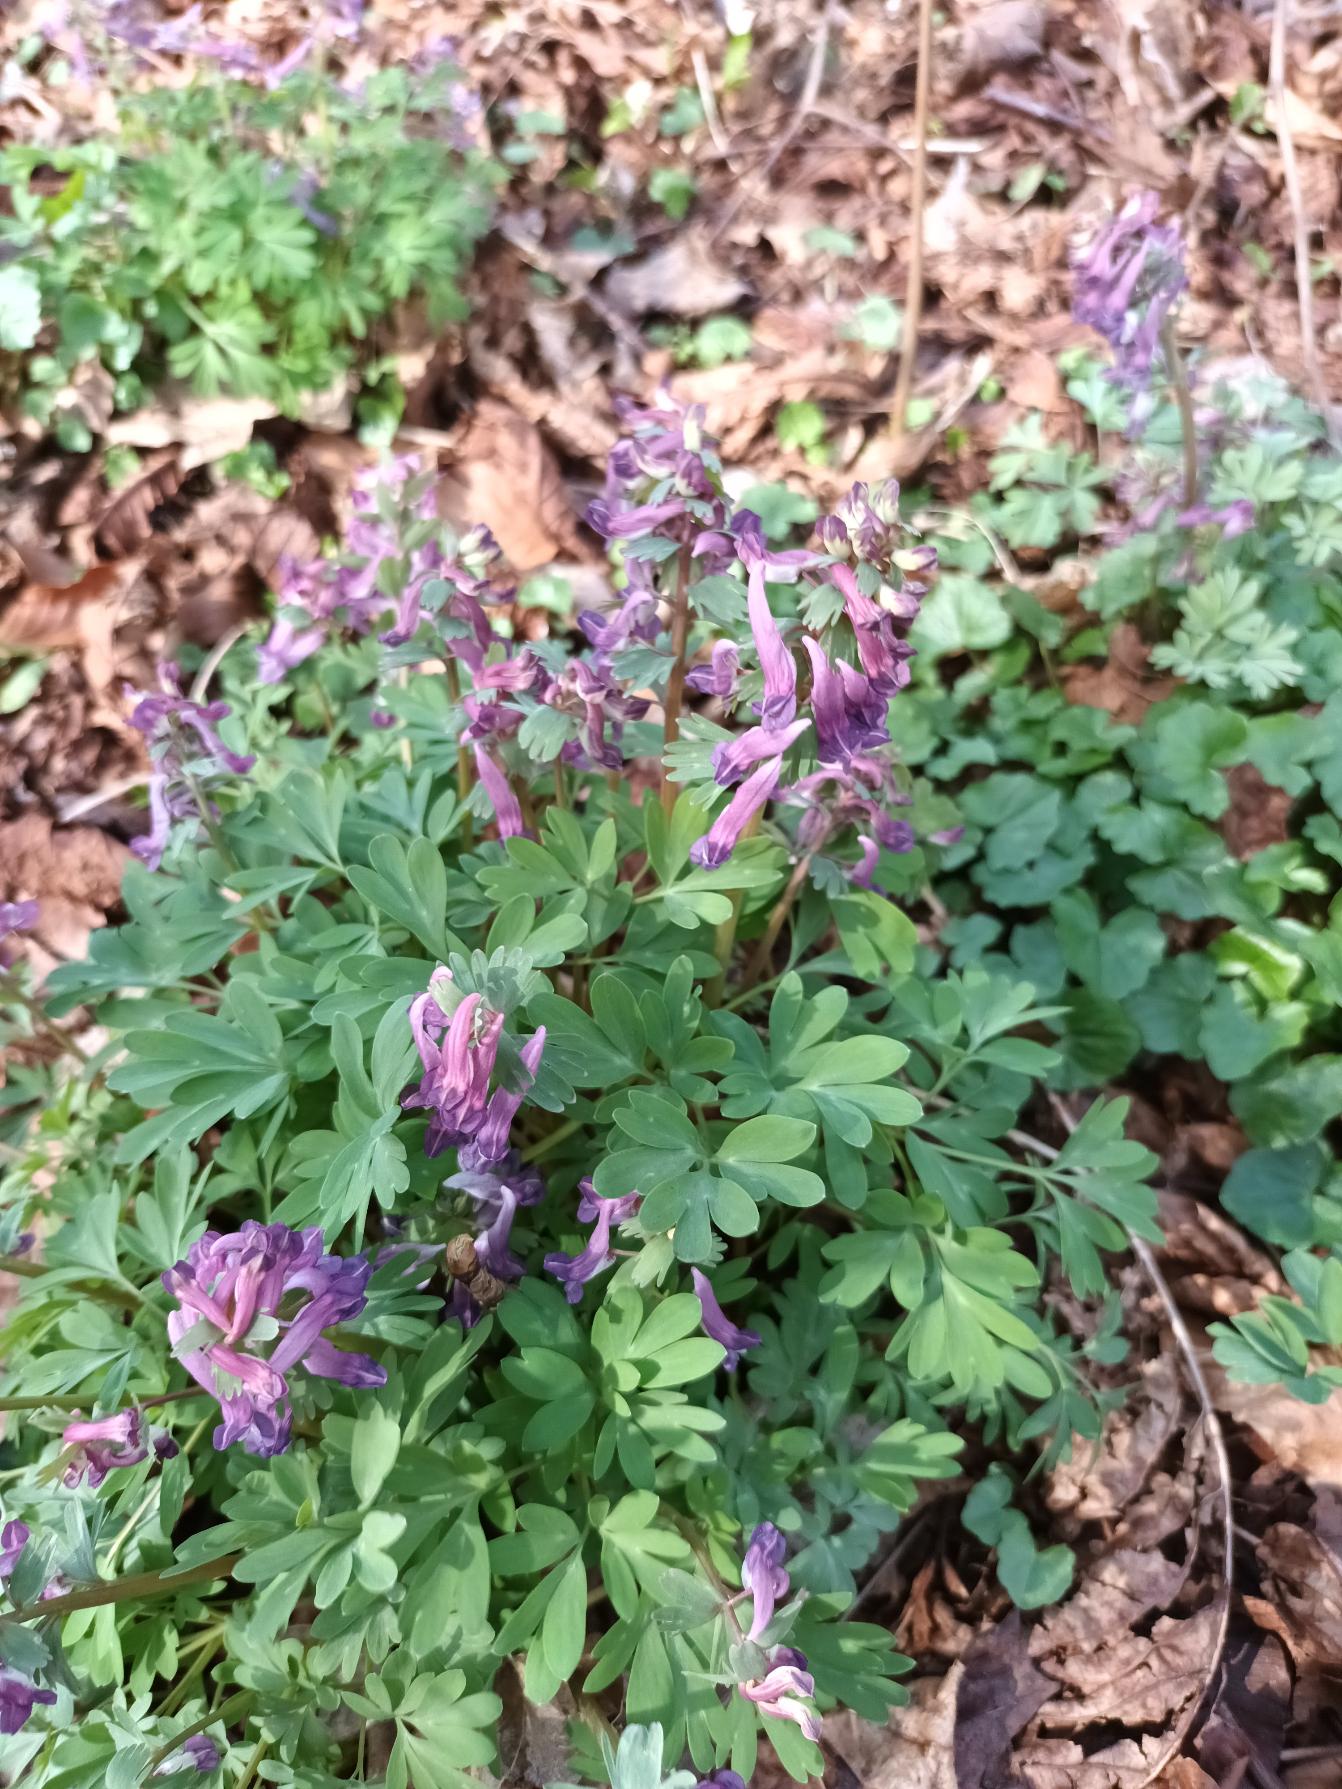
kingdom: Plantae
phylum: Tracheophyta
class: Magnoliopsida
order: Ranunculales
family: Papaveraceae
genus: Corydalis
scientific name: Corydalis solida
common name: Langstilket lærkespore
